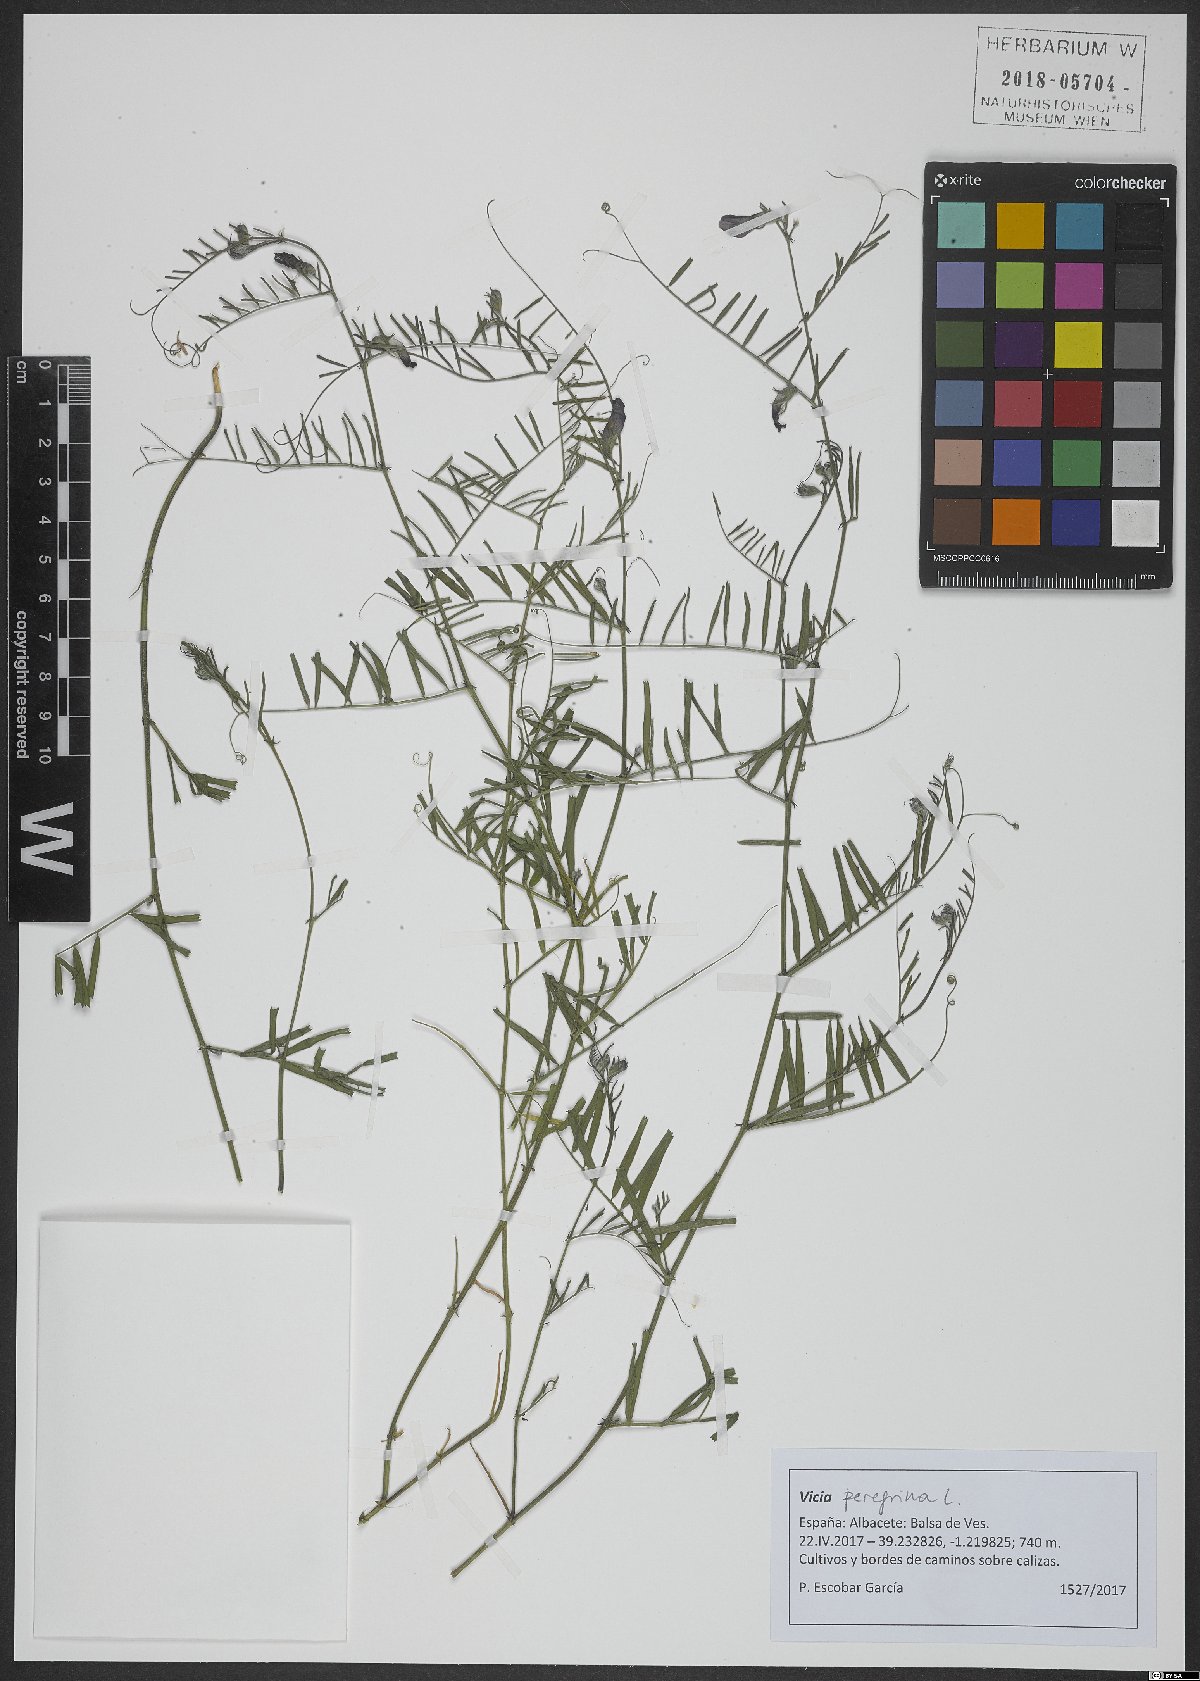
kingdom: Plantae
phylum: Tracheophyta
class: Magnoliopsida
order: Fabales
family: Fabaceae
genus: Vicia
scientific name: Vicia peregrina
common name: Broad-pod vetch
